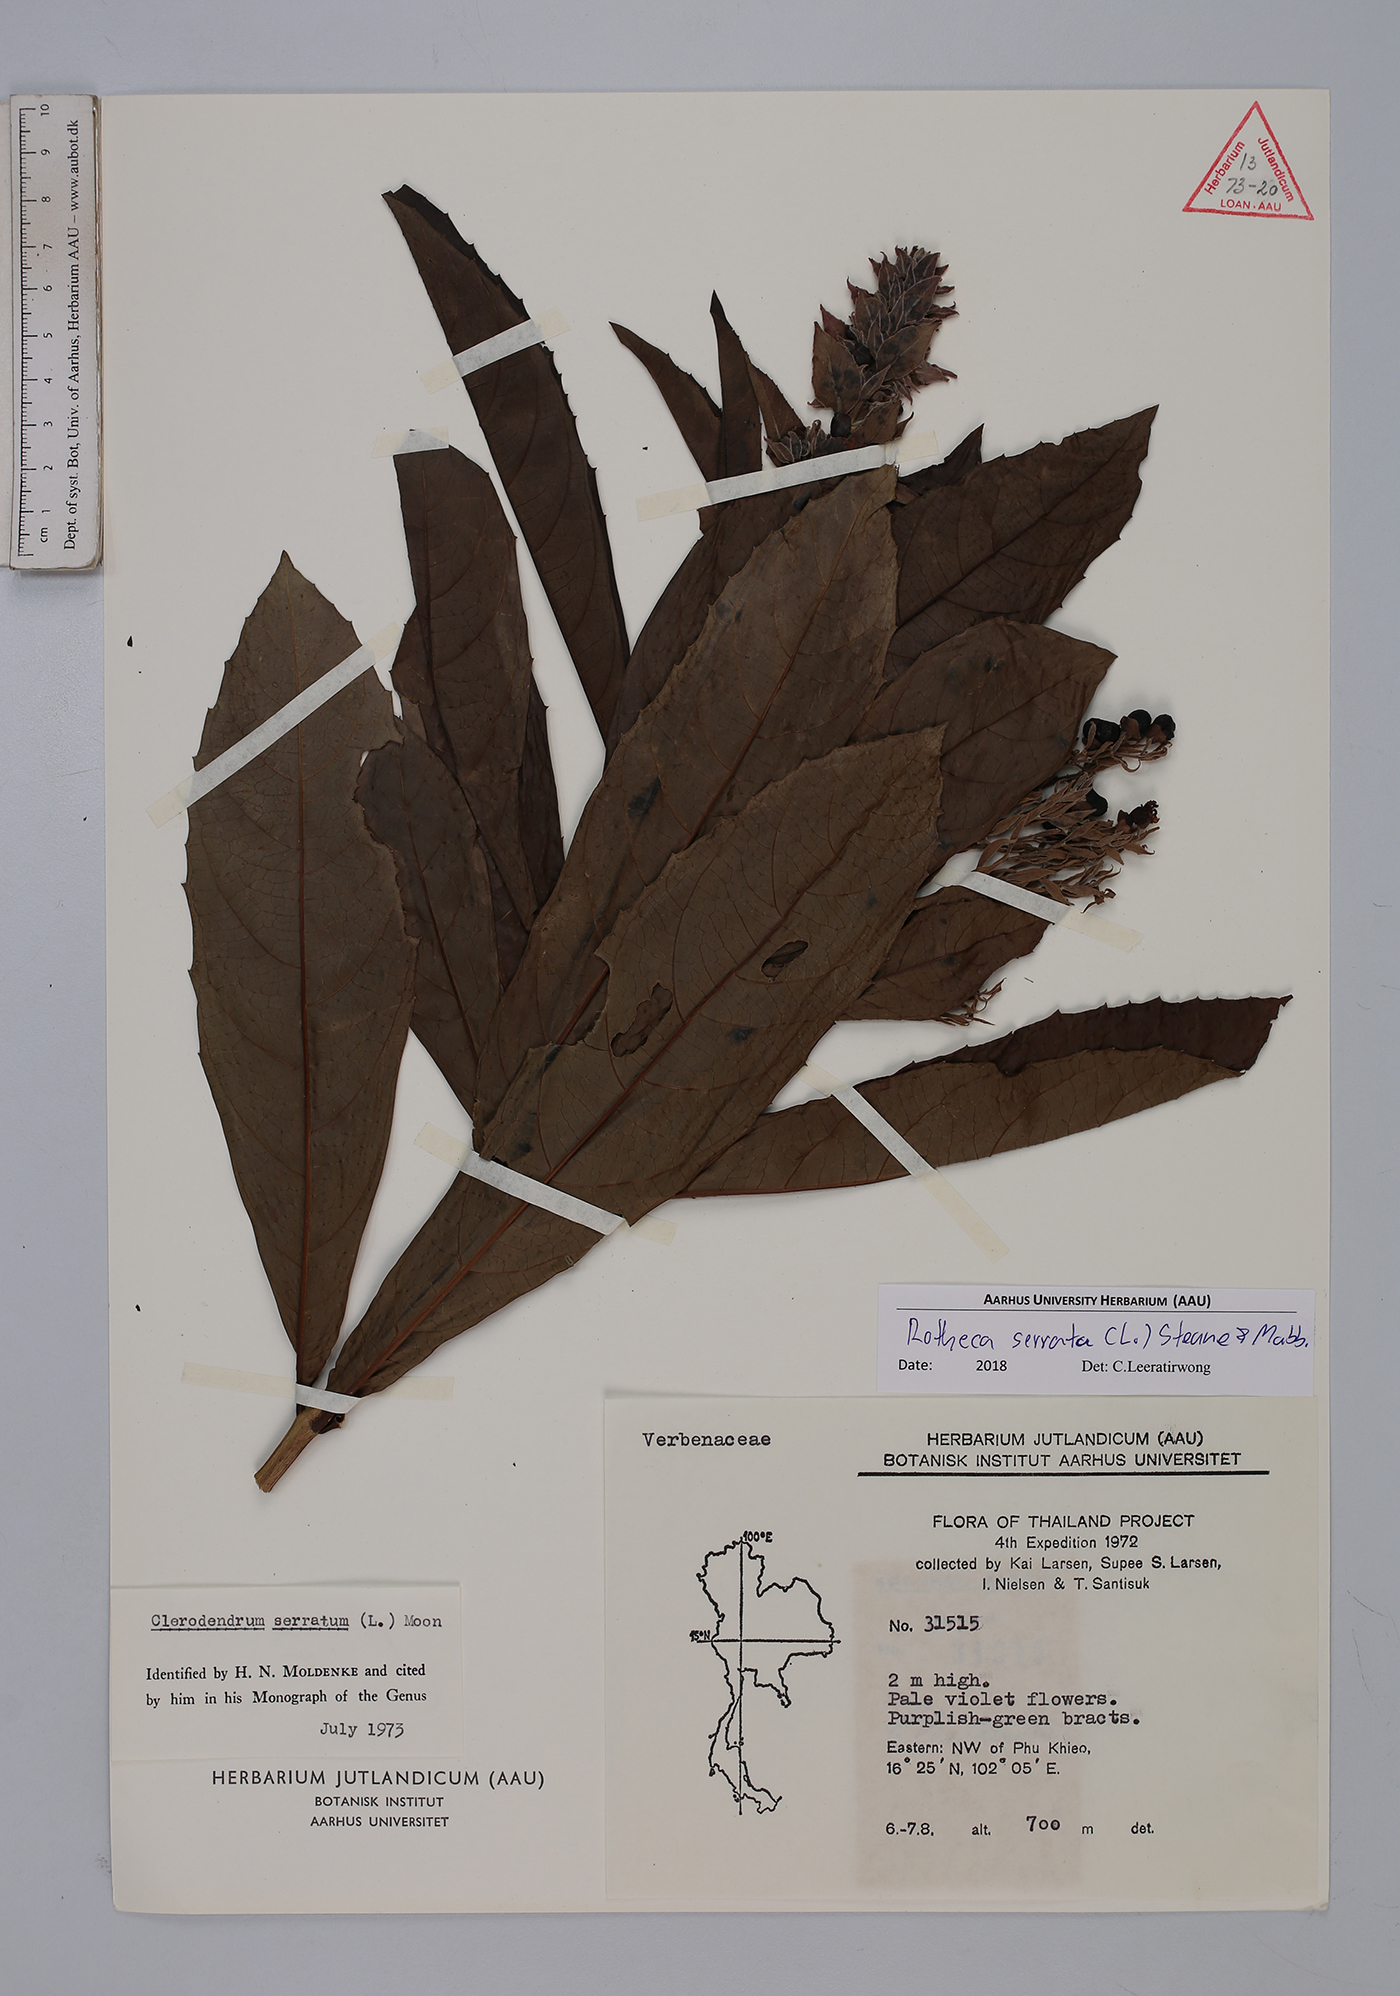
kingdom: Plantae
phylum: Tracheophyta
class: Magnoliopsida
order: Lamiales
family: Lamiaceae
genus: Rotheca
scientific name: Rotheca serrata
